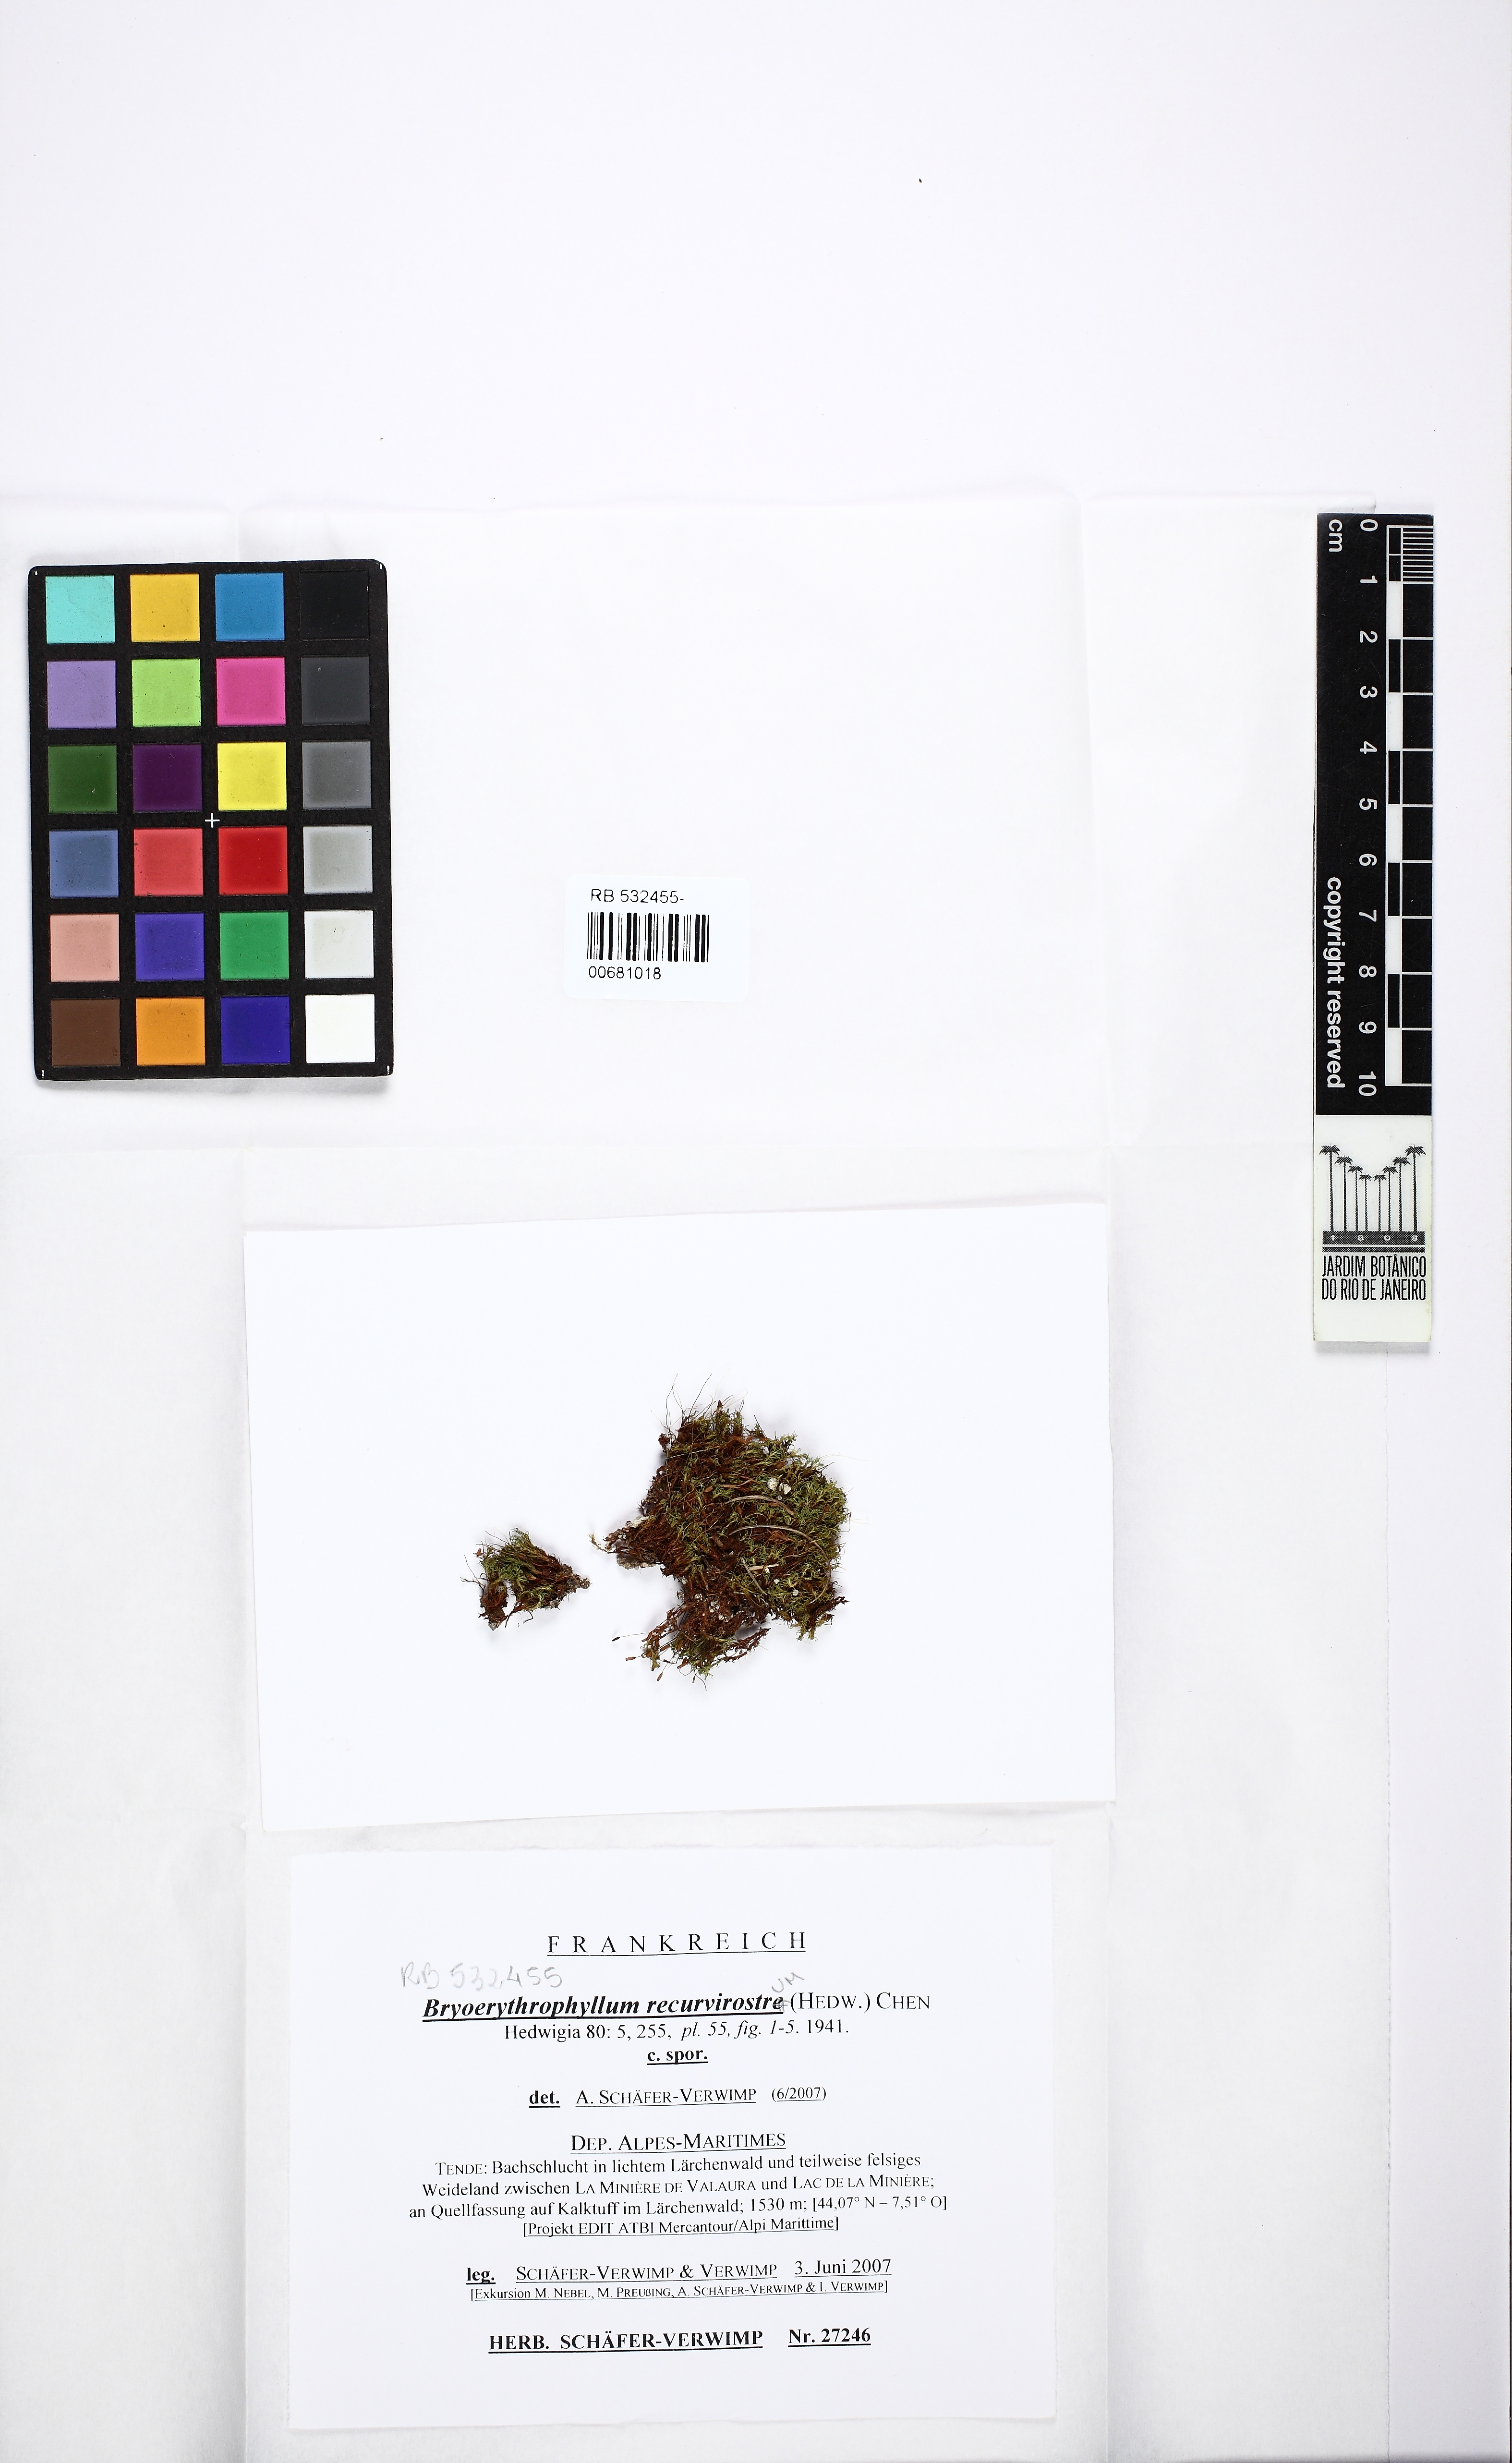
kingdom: Plantae
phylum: Bryophyta
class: Bryopsida
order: Pottiales
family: Pottiaceae
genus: Bryoerythrophyllum
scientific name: Bryoerythrophyllum recurvirostrum
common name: Red beard moss
